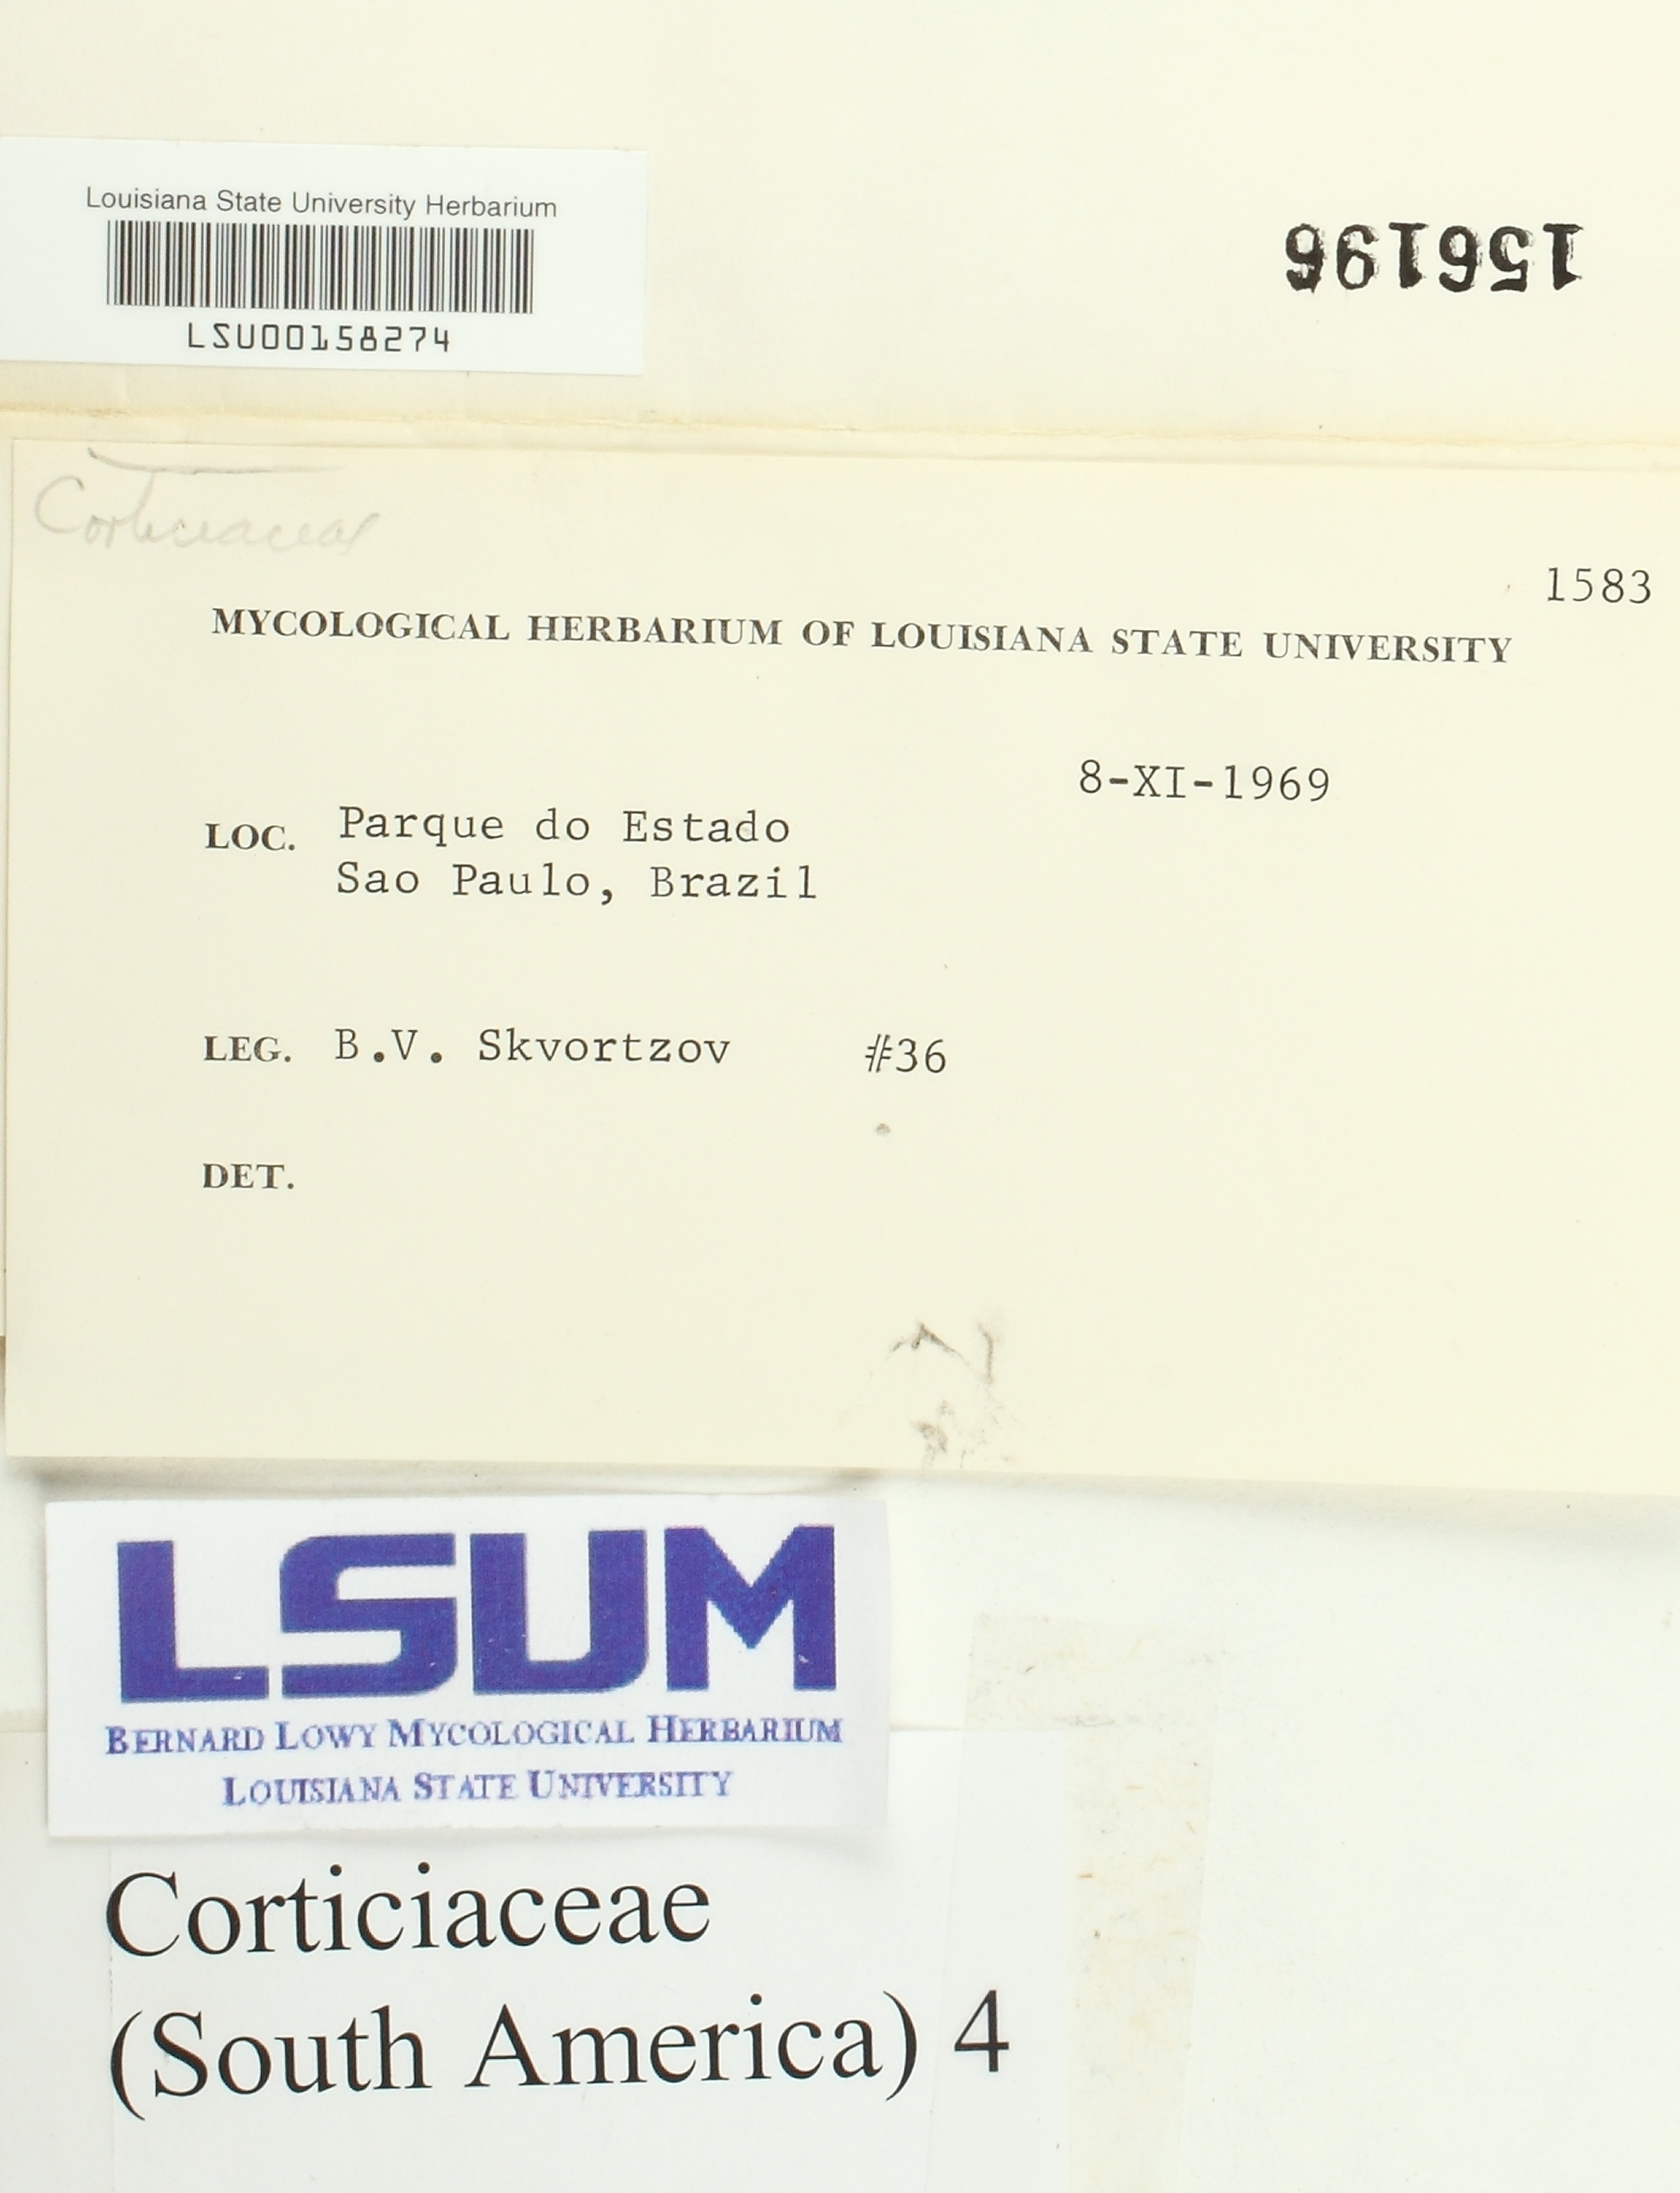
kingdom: Fungi
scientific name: Fungi
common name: Fungi
